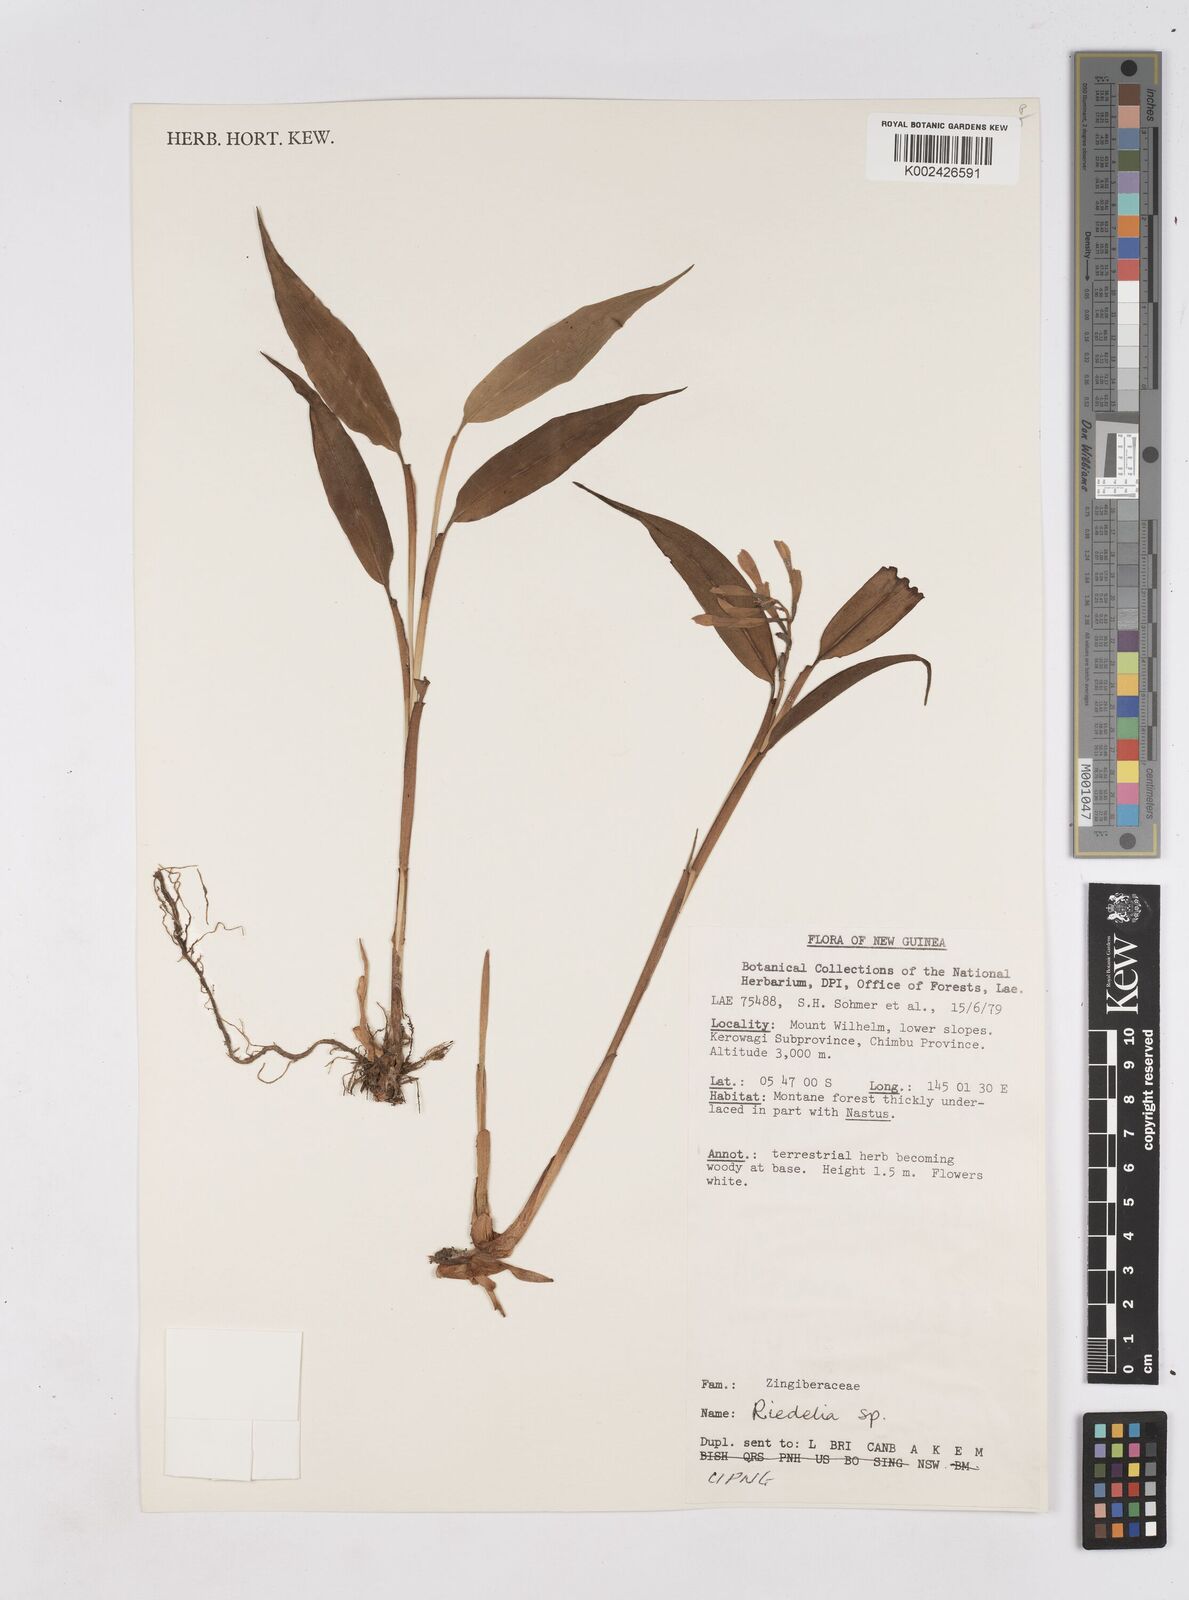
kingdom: Plantae
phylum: Tracheophyta
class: Liliopsida
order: Zingiberales
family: Zingiberaceae
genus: Riedelia
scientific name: Riedelia
